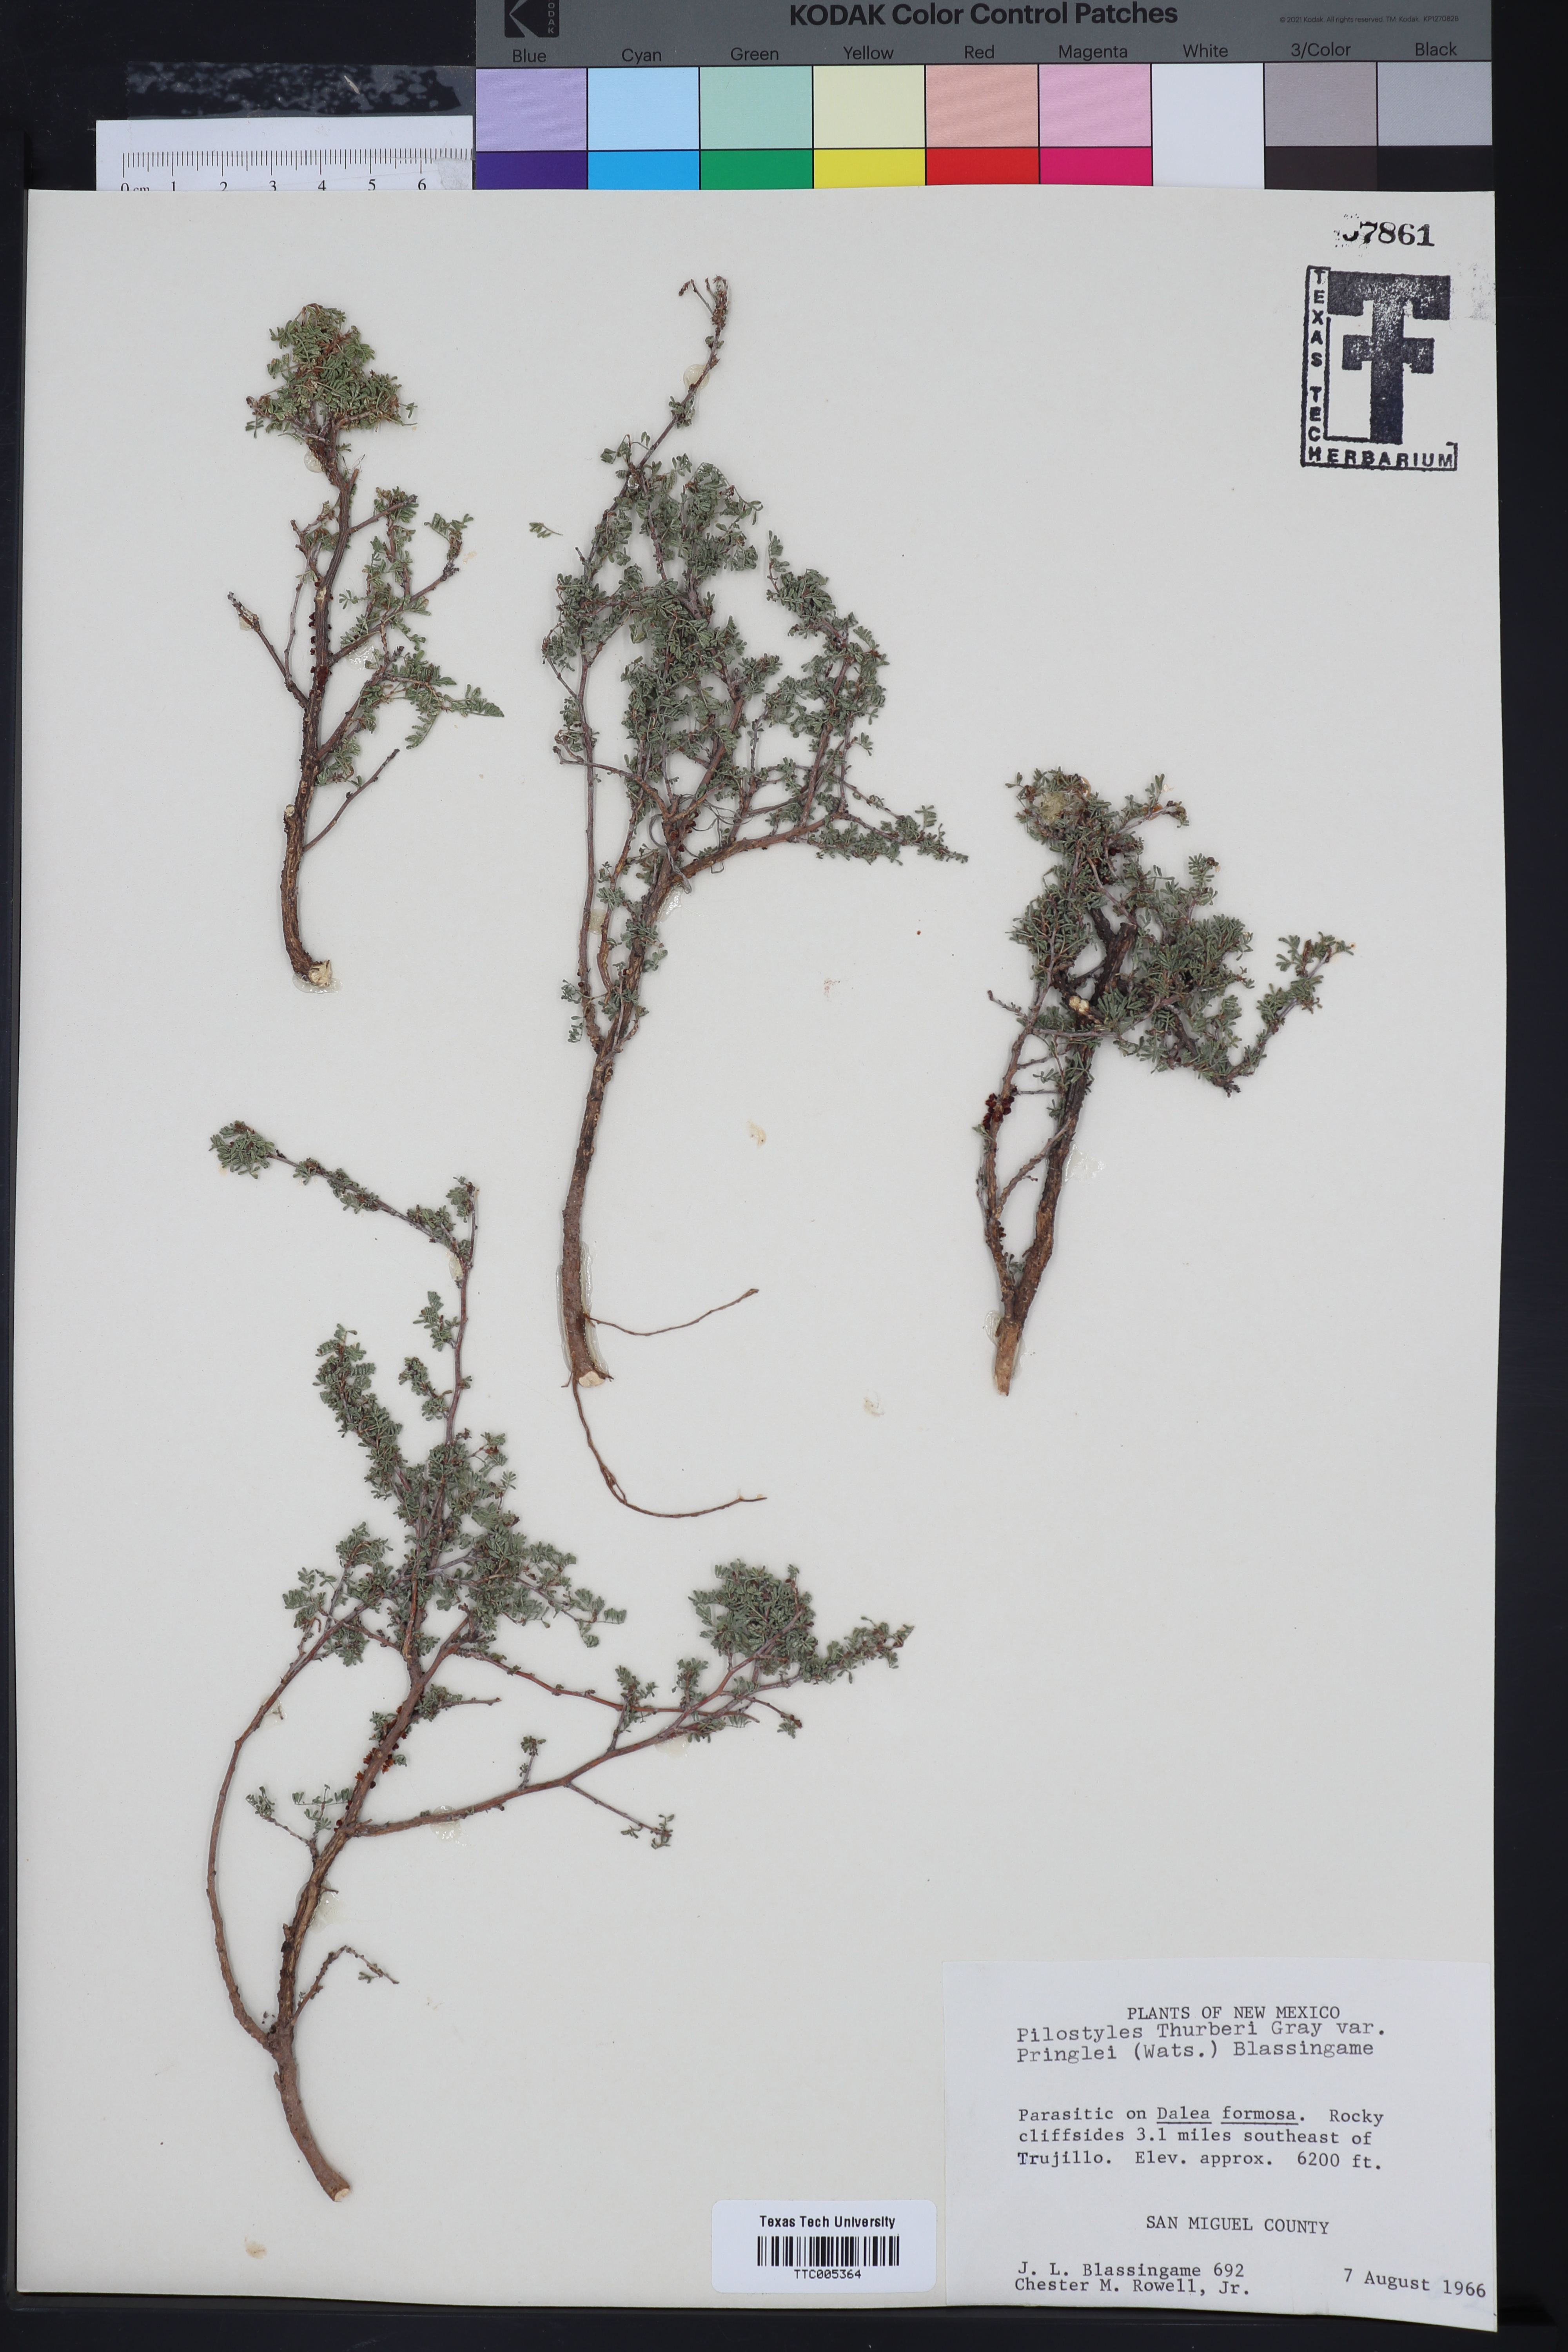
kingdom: Plantae
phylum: Tracheophyta
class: Magnoliopsida
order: Cucurbitales
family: Apodanthaceae
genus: Pilostyles
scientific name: Pilostyles thurberi
